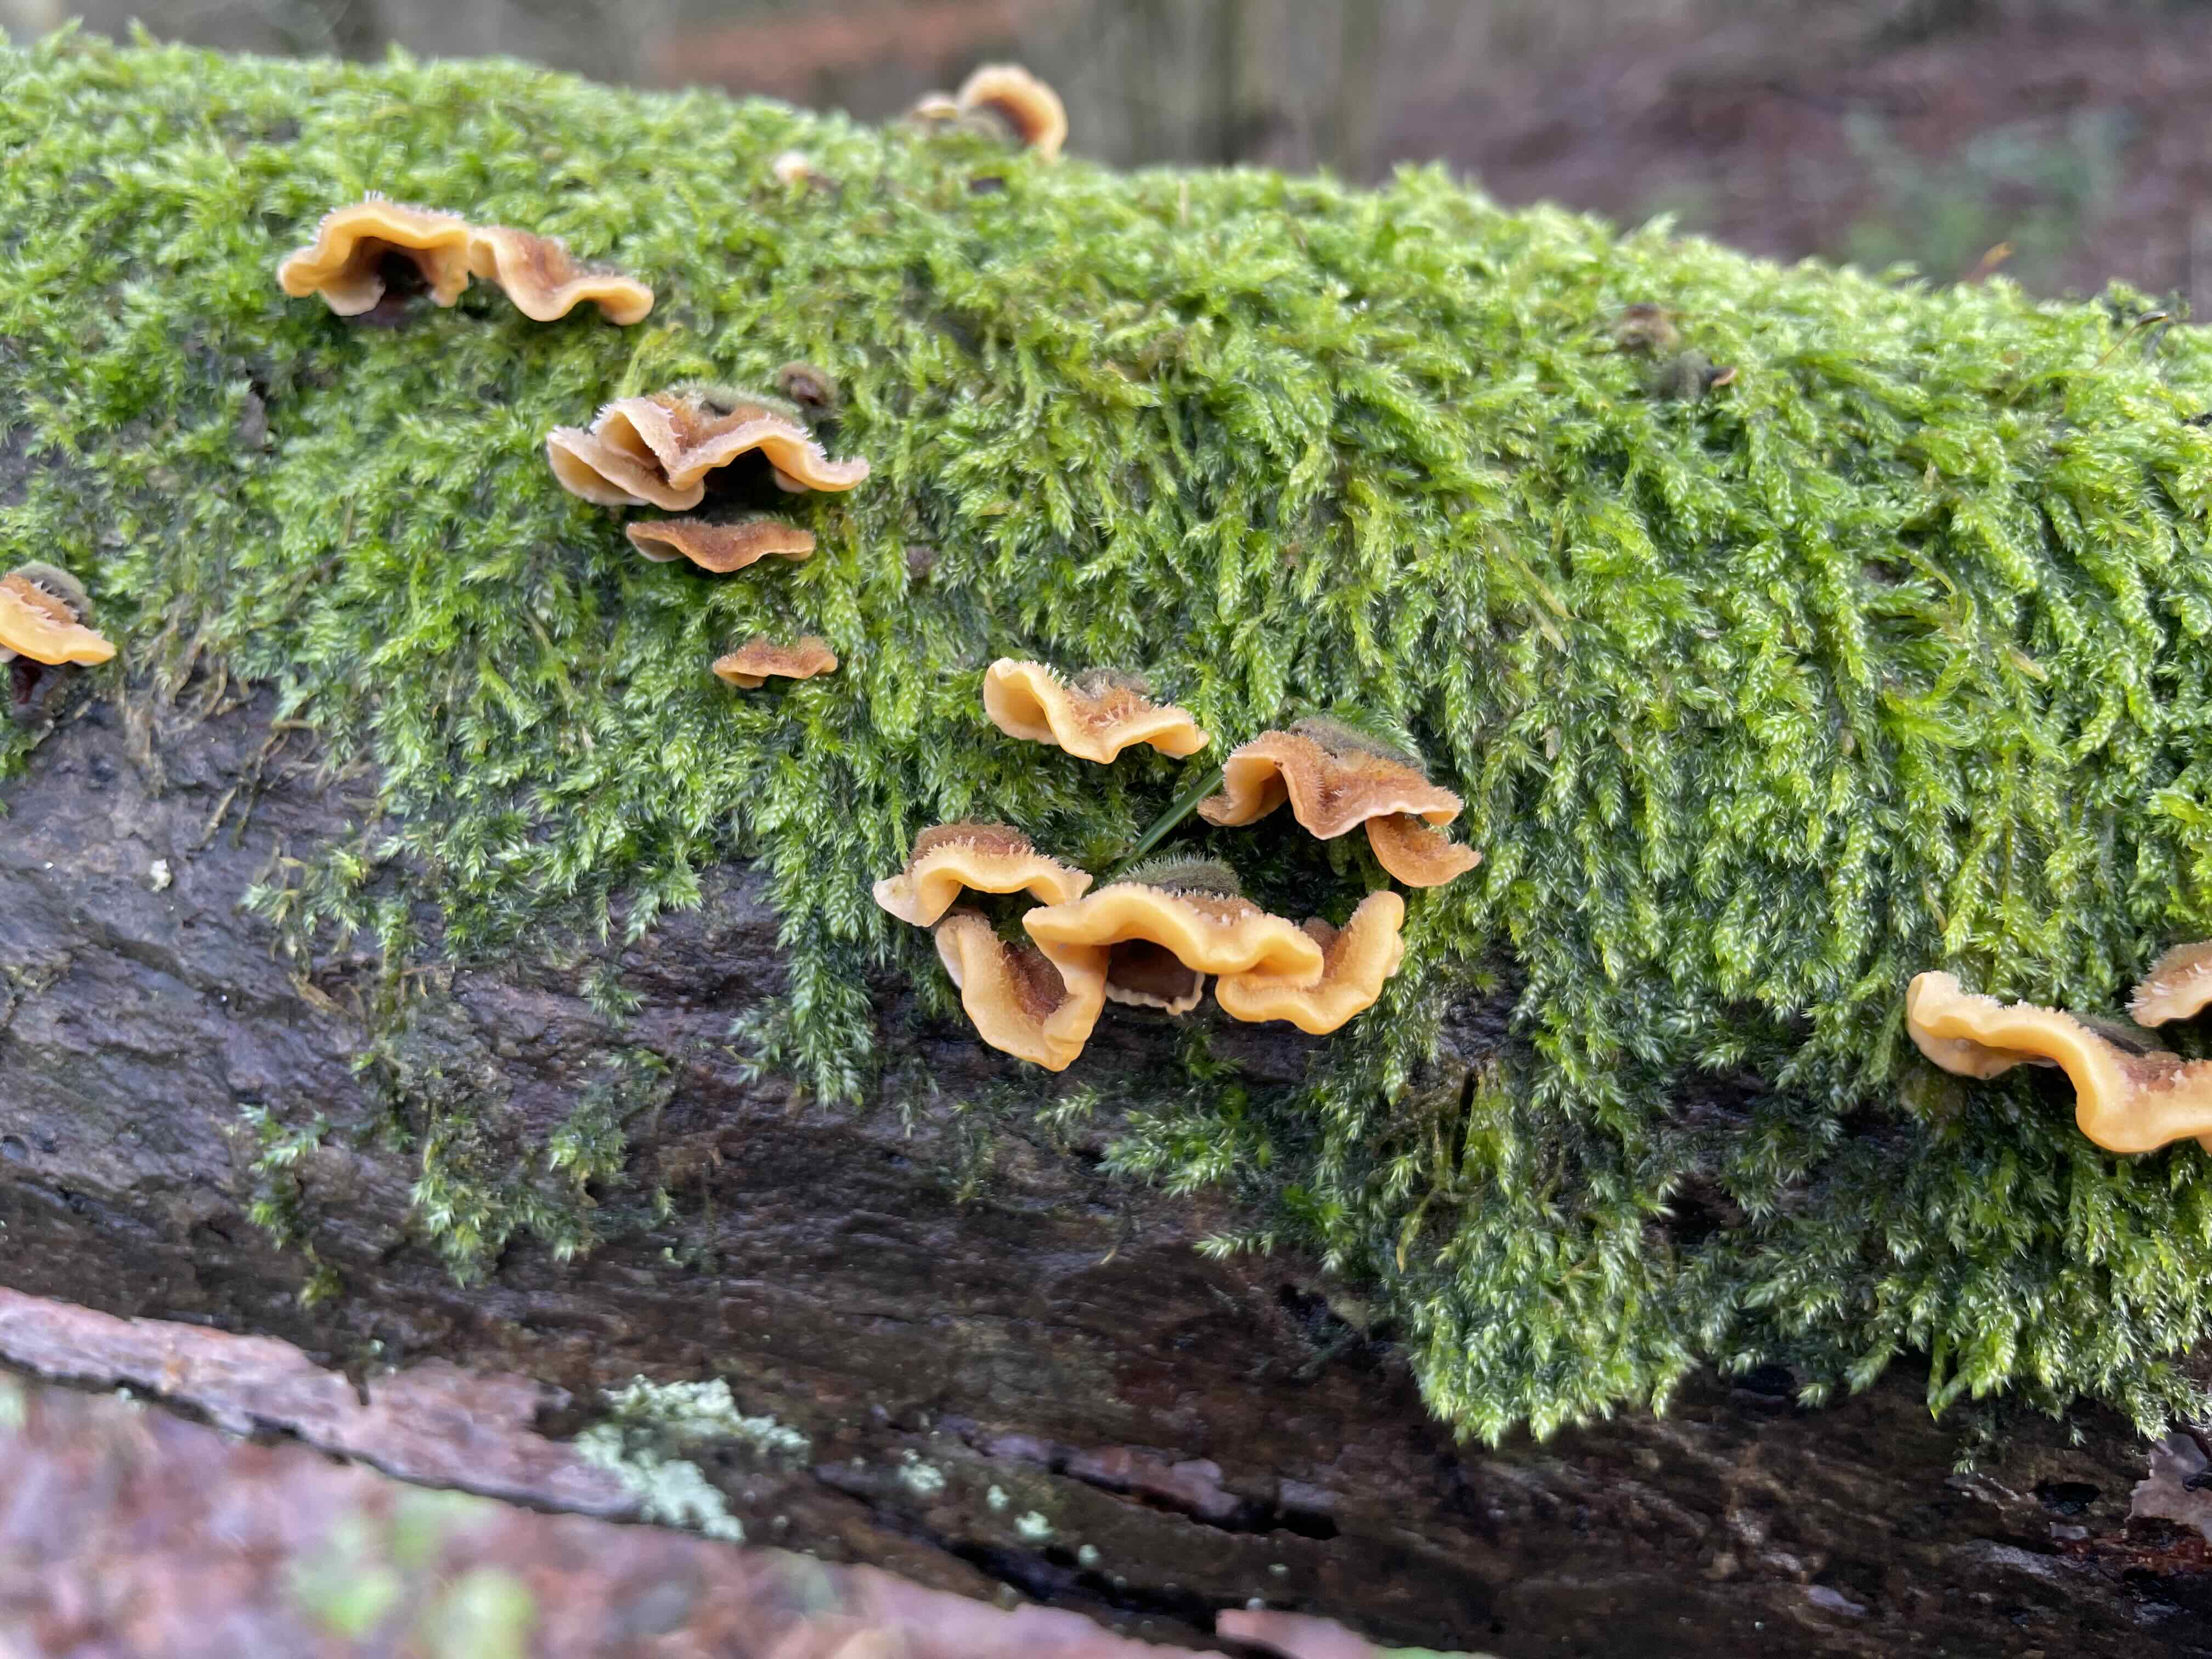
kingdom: Fungi
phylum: Basidiomycota
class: Agaricomycetes
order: Russulales
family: Stereaceae
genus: Stereum
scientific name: Stereum hirsutum
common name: håret lædersvamp
